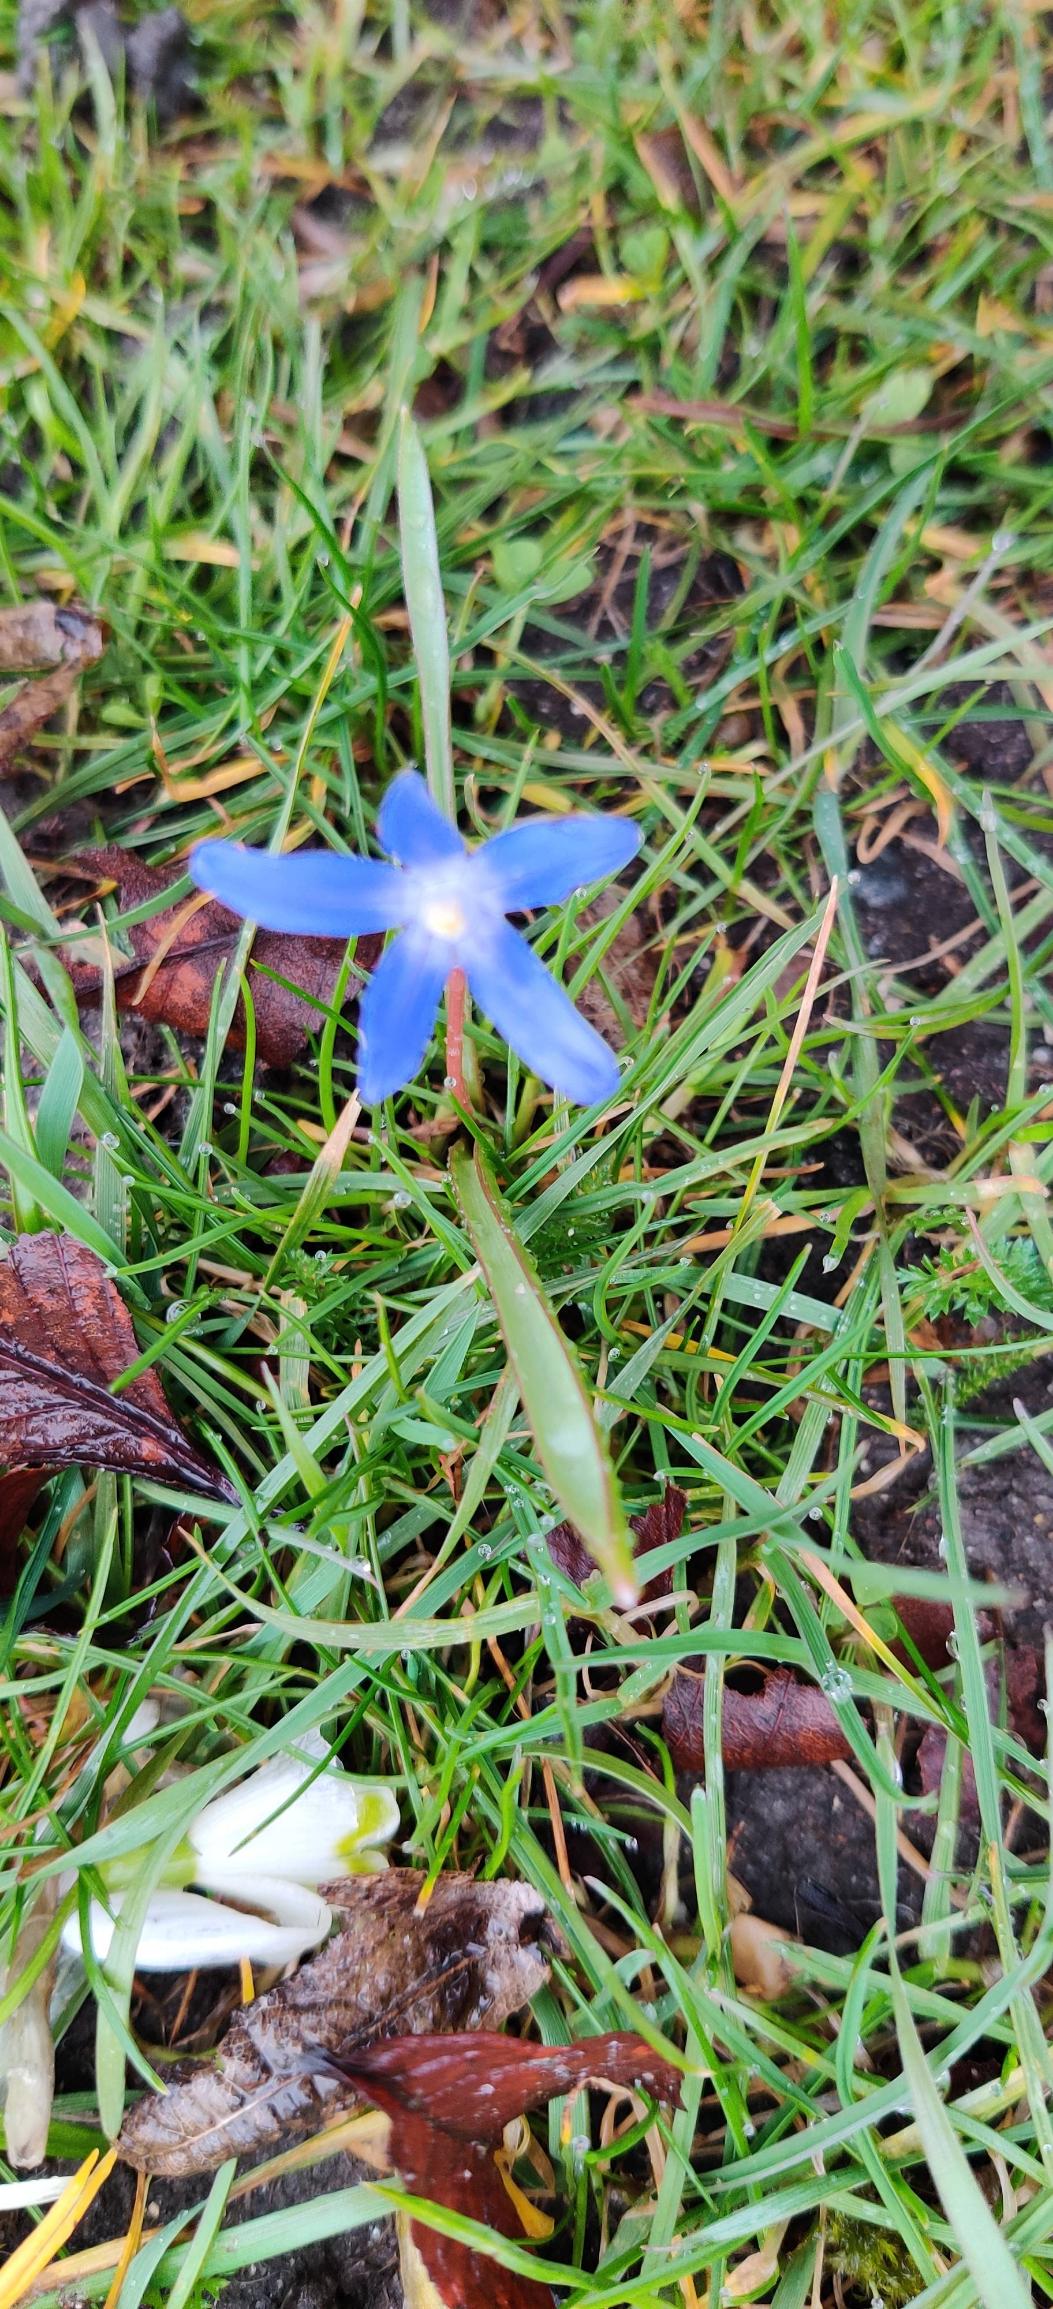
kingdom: Plantae
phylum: Tracheophyta
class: Liliopsida
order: Asparagales
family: Asparagaceae
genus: Scilla
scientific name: Scilla luciliae
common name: Stor snepryd
